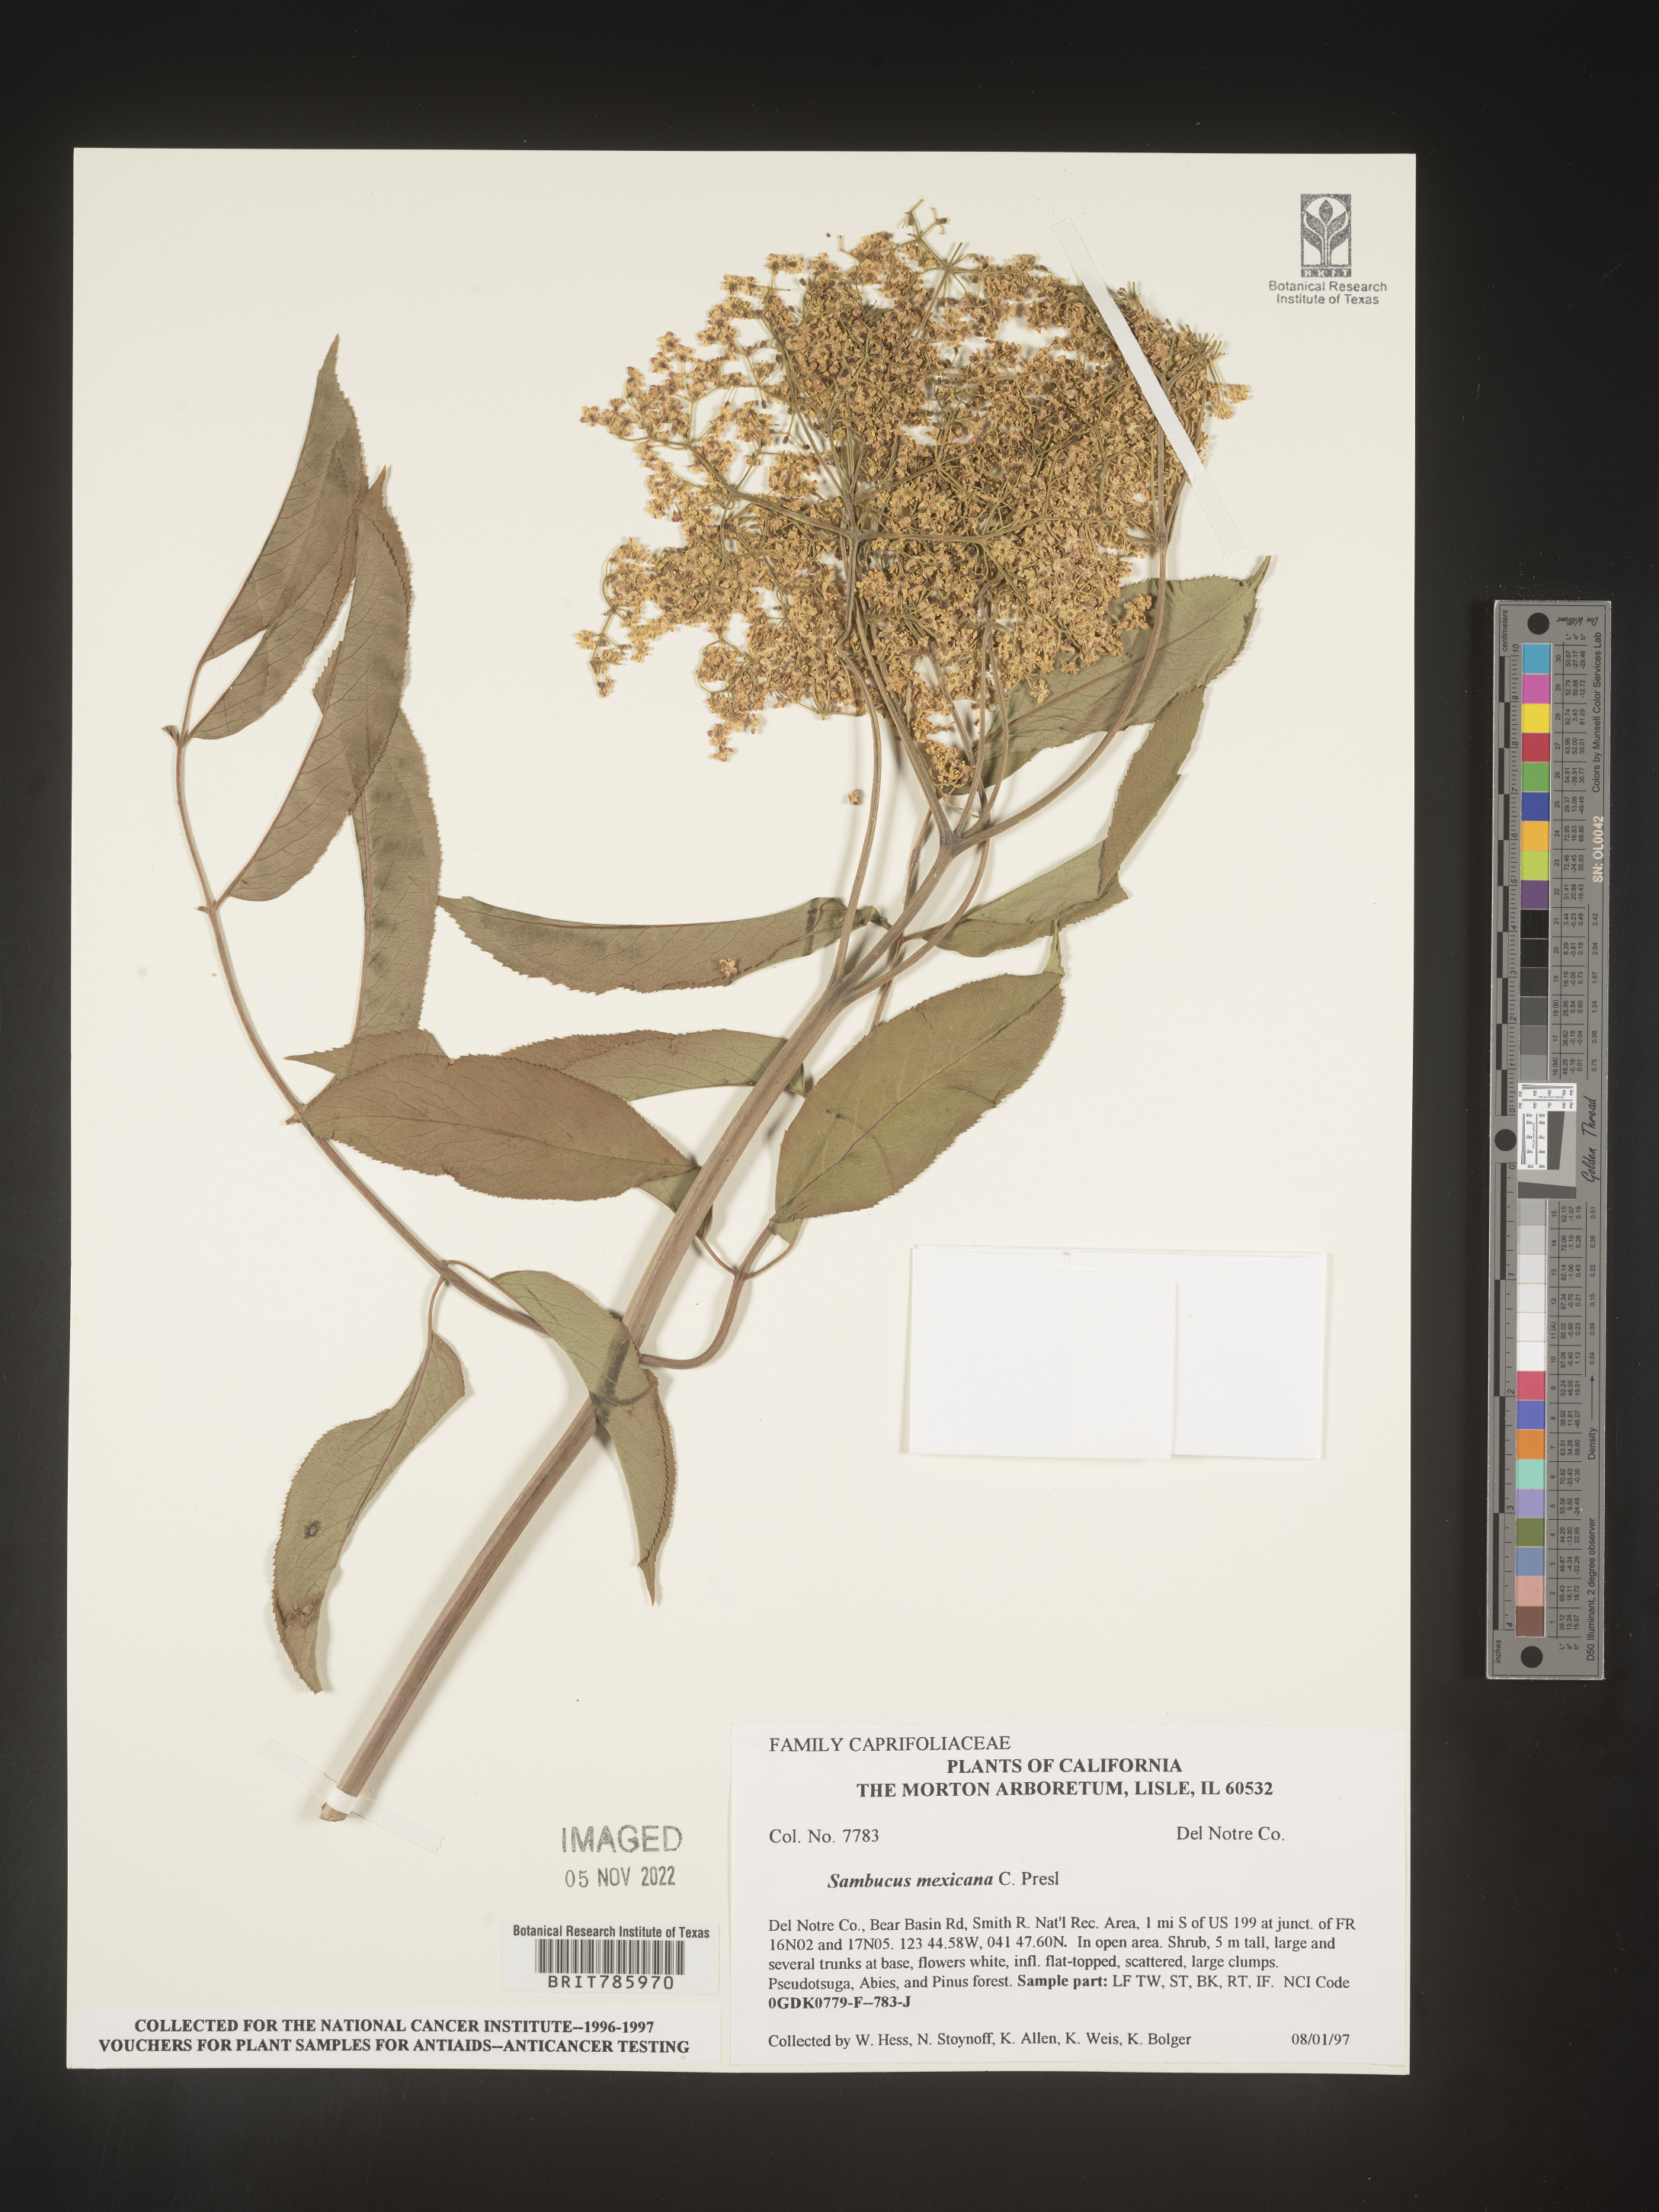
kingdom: Plantae
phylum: Tracheophyta
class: Magnoliopsida
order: Dipsacales
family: Viburnaceae
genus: Sambucus
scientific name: Sambucus mexicana
